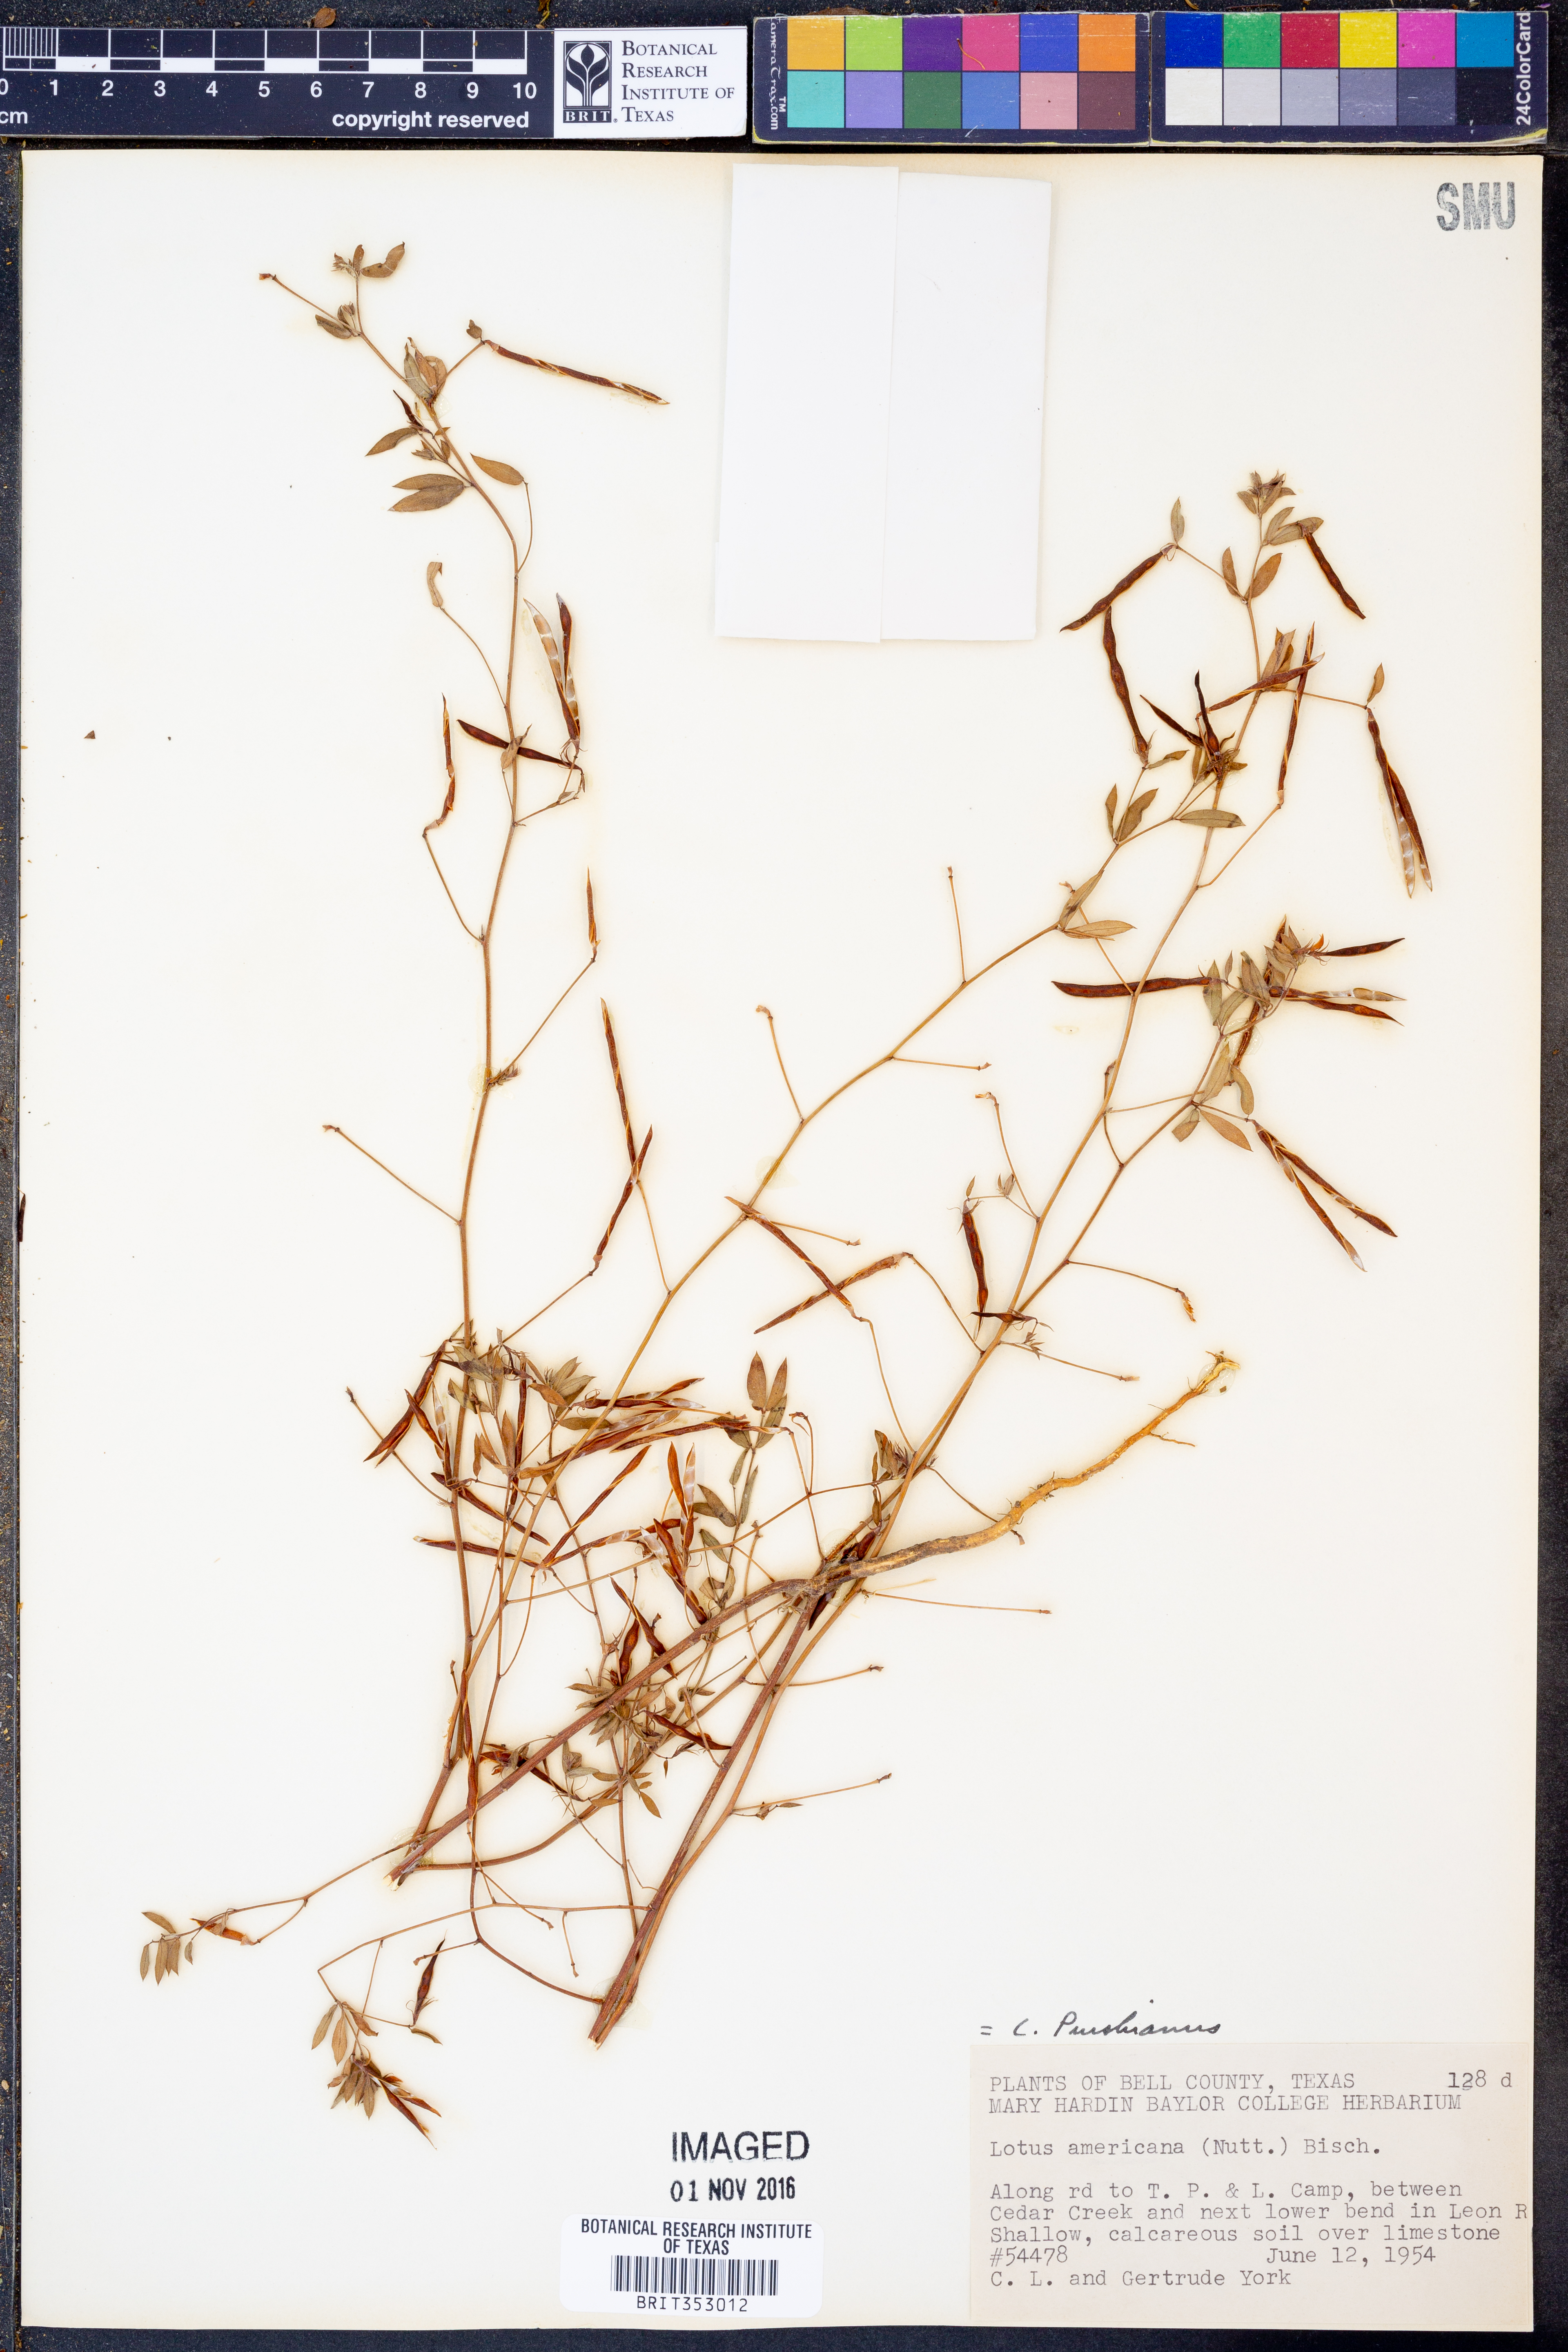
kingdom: Plantae
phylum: Tracheophyta
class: Magnoliopsida
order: Fabales
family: Fabaceae
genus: Acmispon
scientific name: Acmispon americanus
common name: American bird's-foot trefoil
